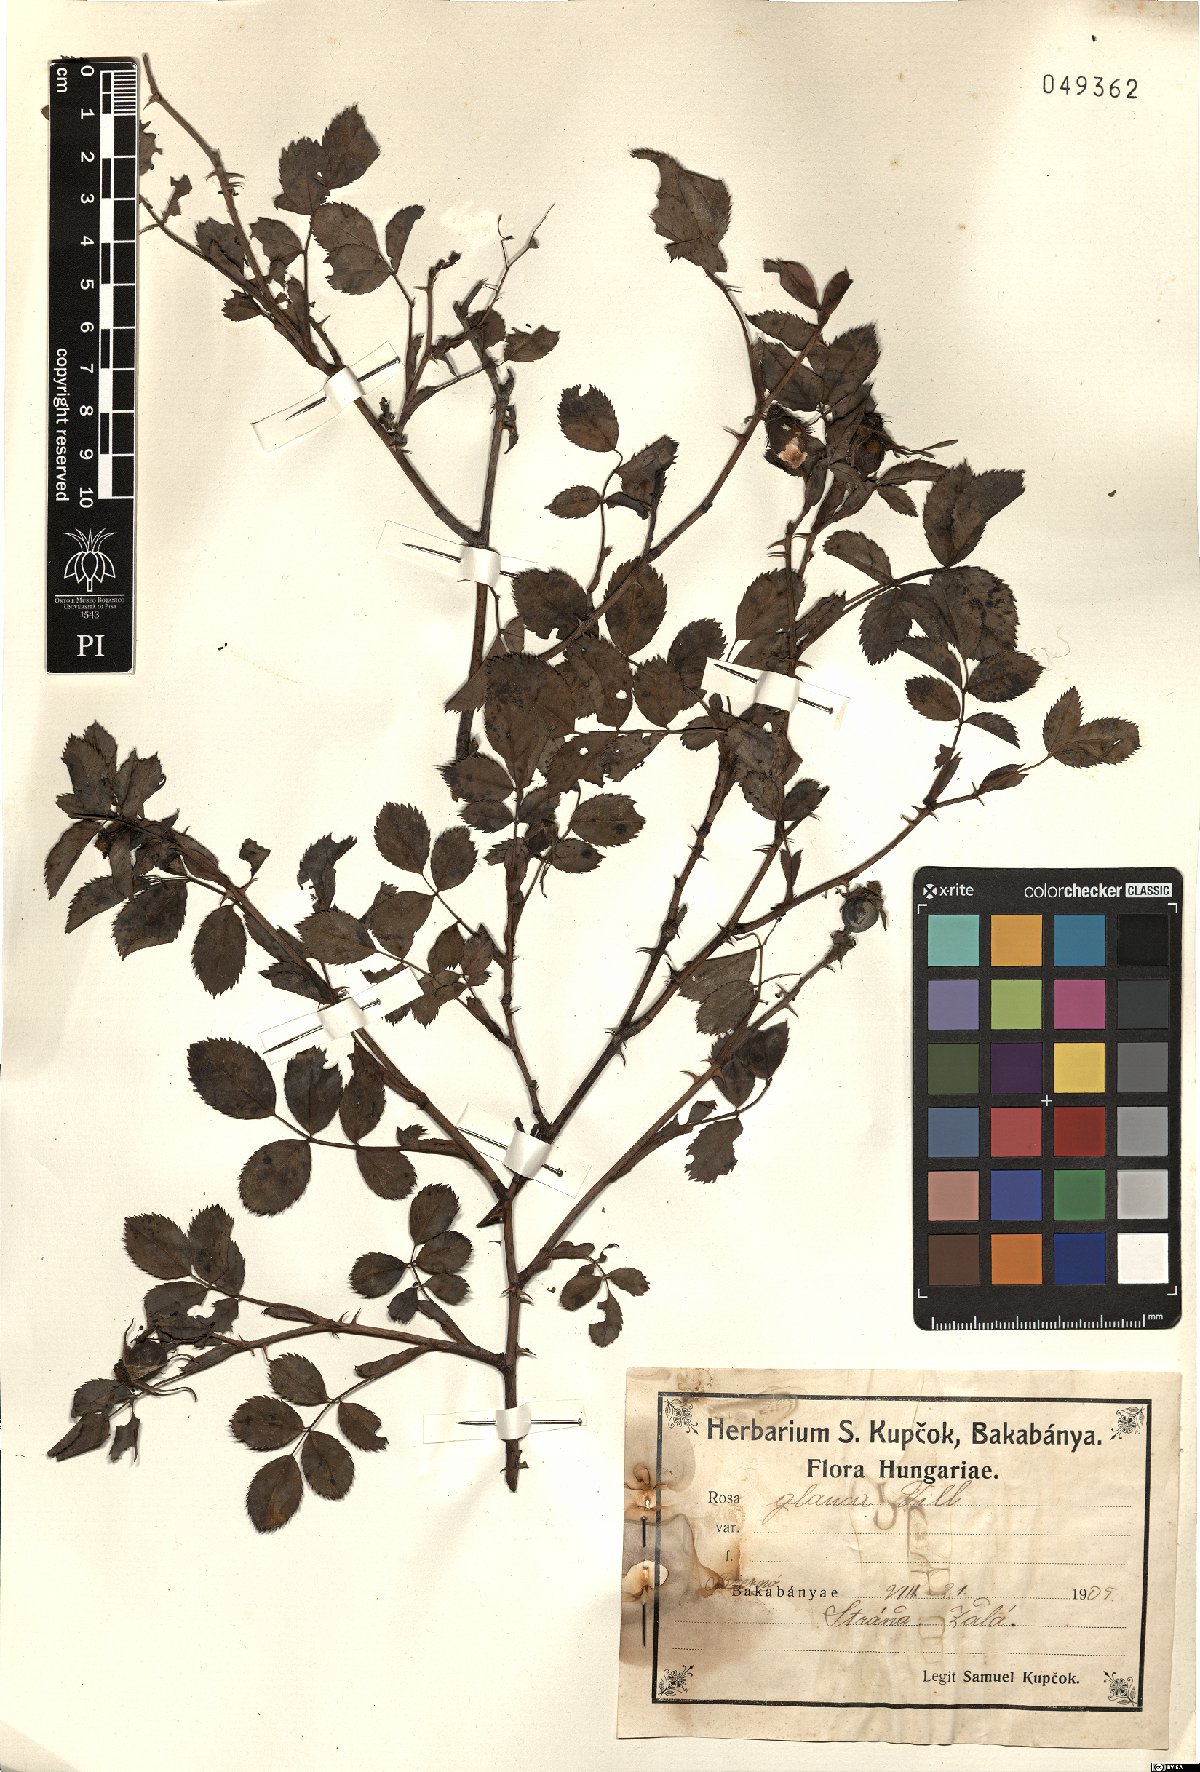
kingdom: Plantae
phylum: Tracheophyta
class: Magnoliopsida
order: Rosales
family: Rosaceae
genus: Rosa
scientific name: Rosa glauca
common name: Redleaf rose
